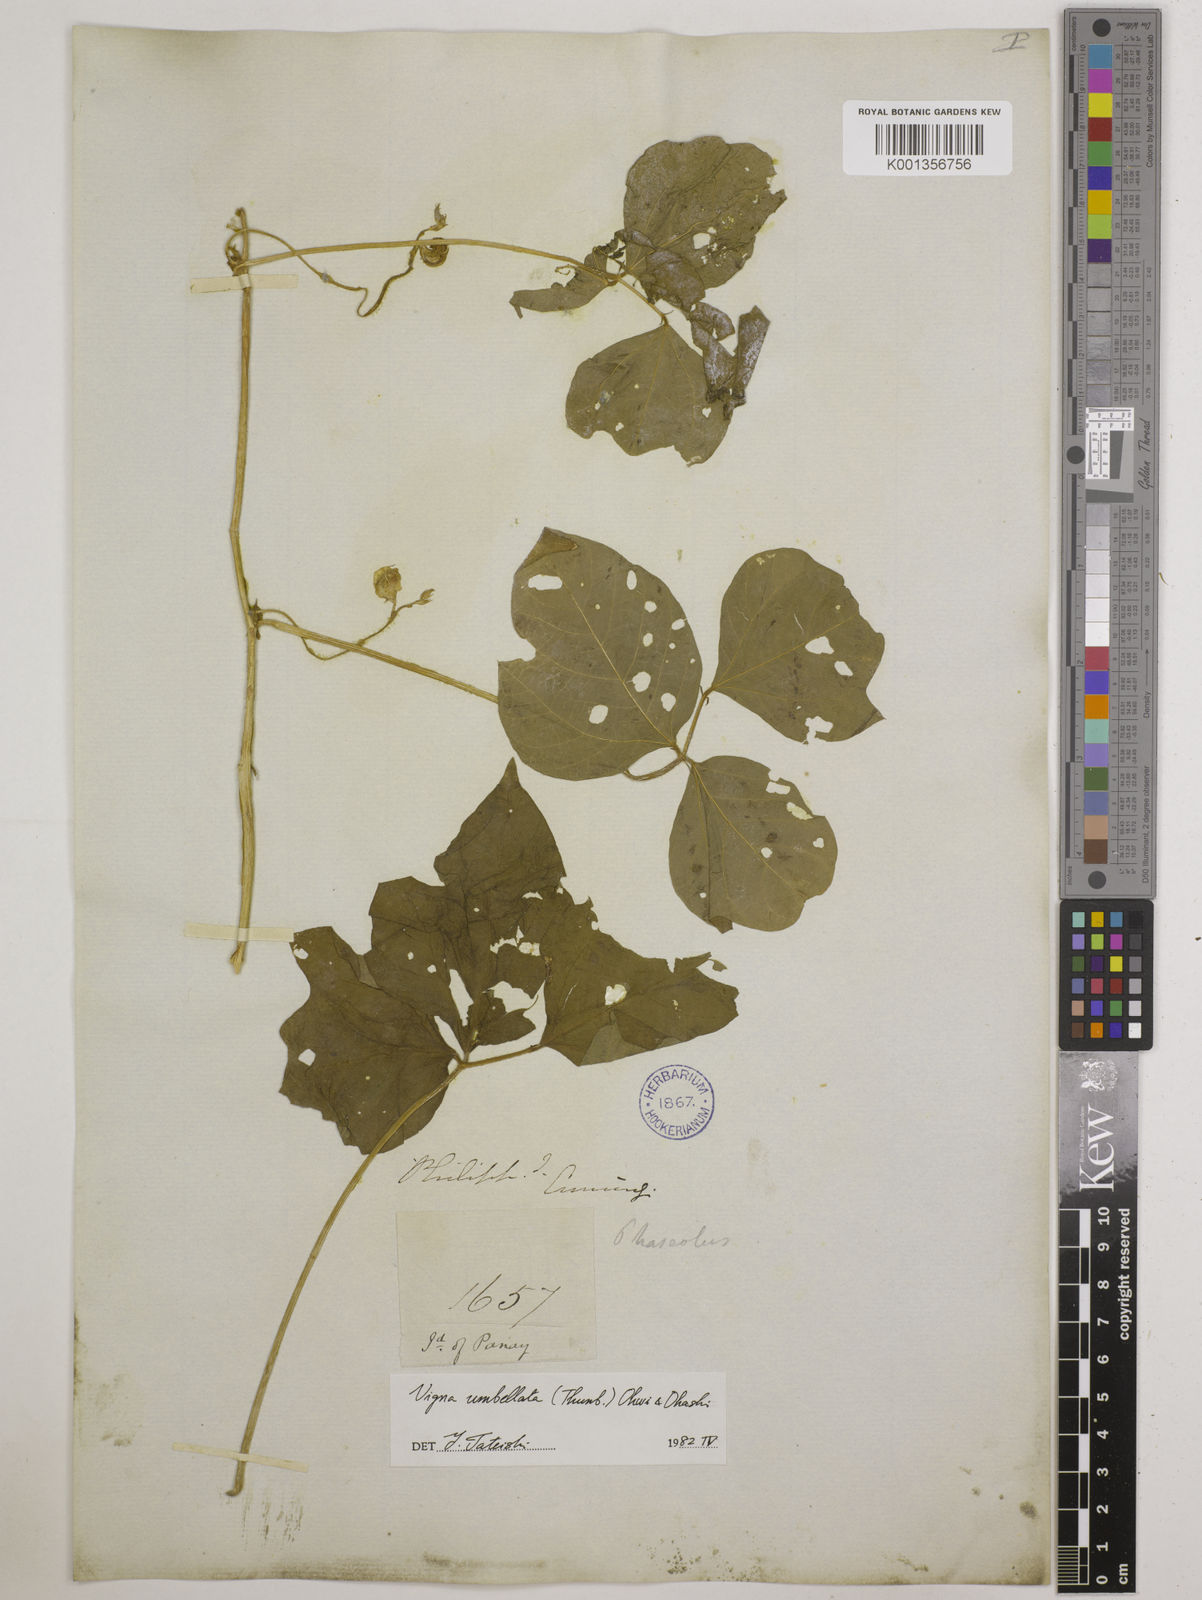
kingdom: Plantae
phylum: Tracheophyta
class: Magnoliopsida
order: Fabales
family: Fabaceae
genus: Vigna
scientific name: Vigna umbellata
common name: Oriental-bean
